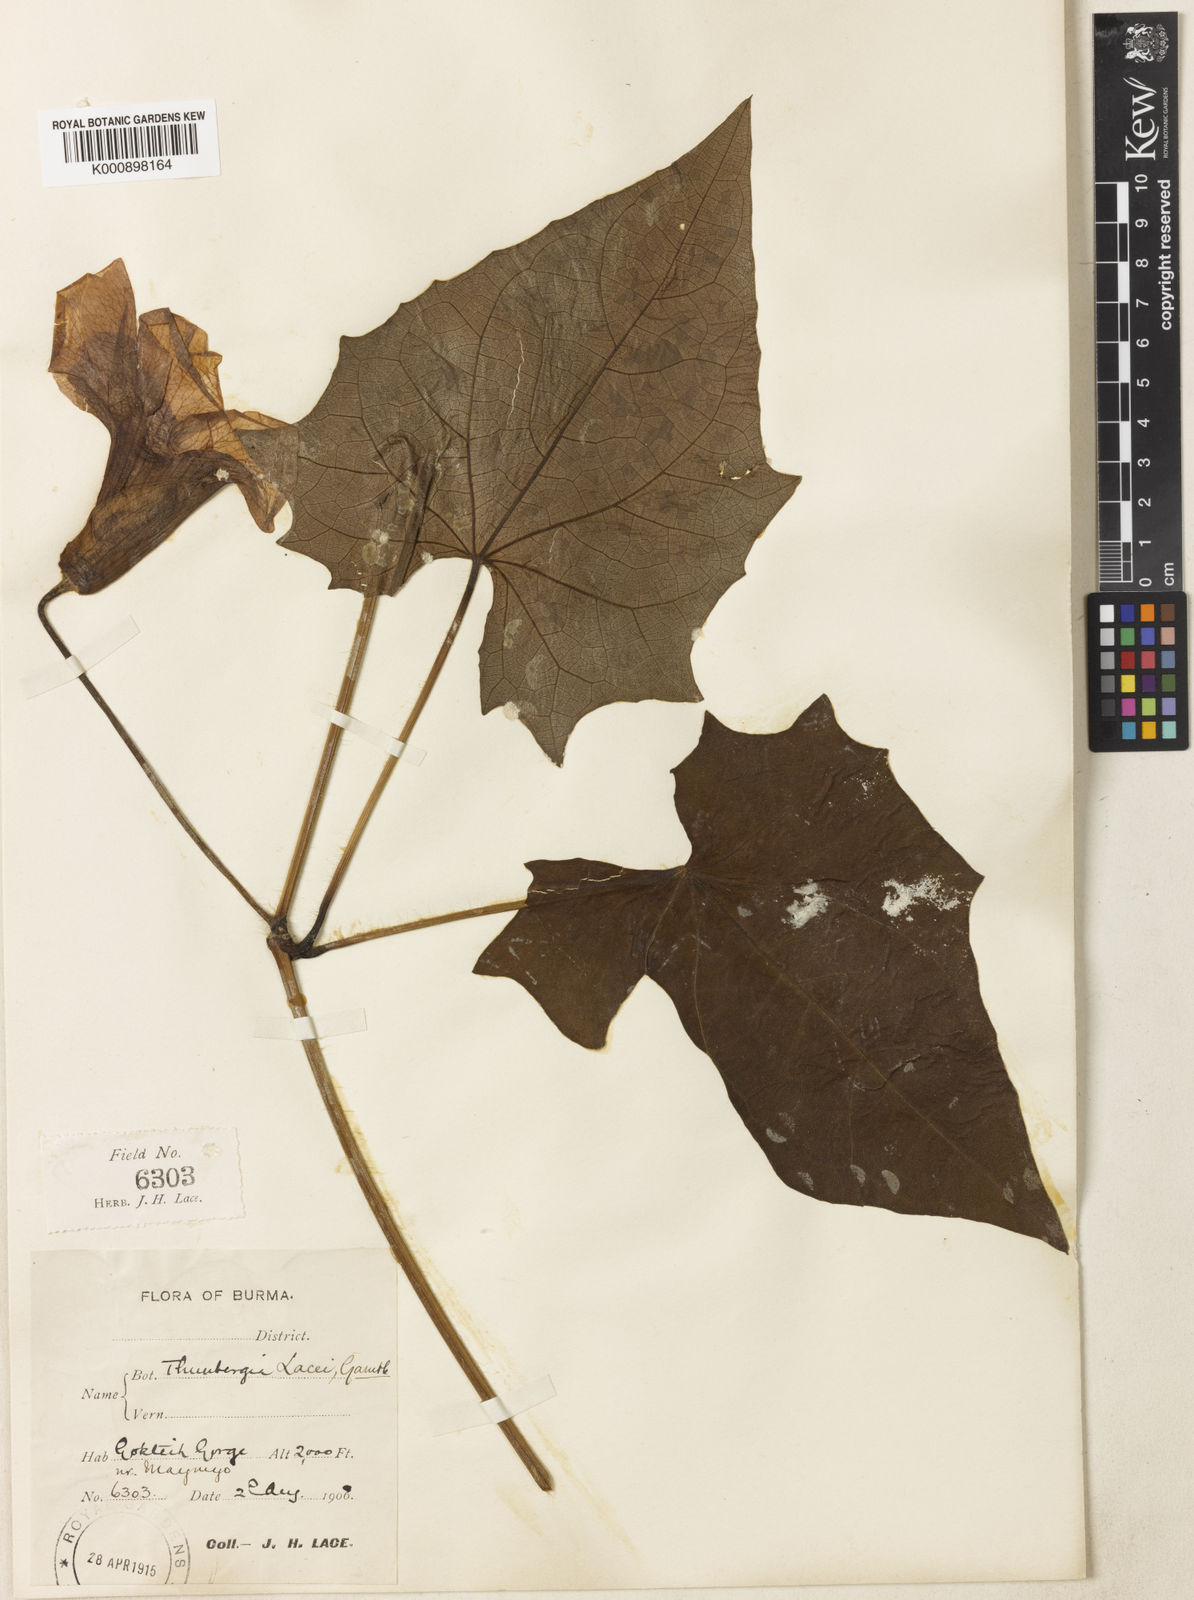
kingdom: Plantae
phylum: Tracheophyta
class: Magnoliopsida
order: Lamiales
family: Acanthaceae
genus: Thunbergia
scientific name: Thunbergia grandiflora
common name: Bengal trumpet
